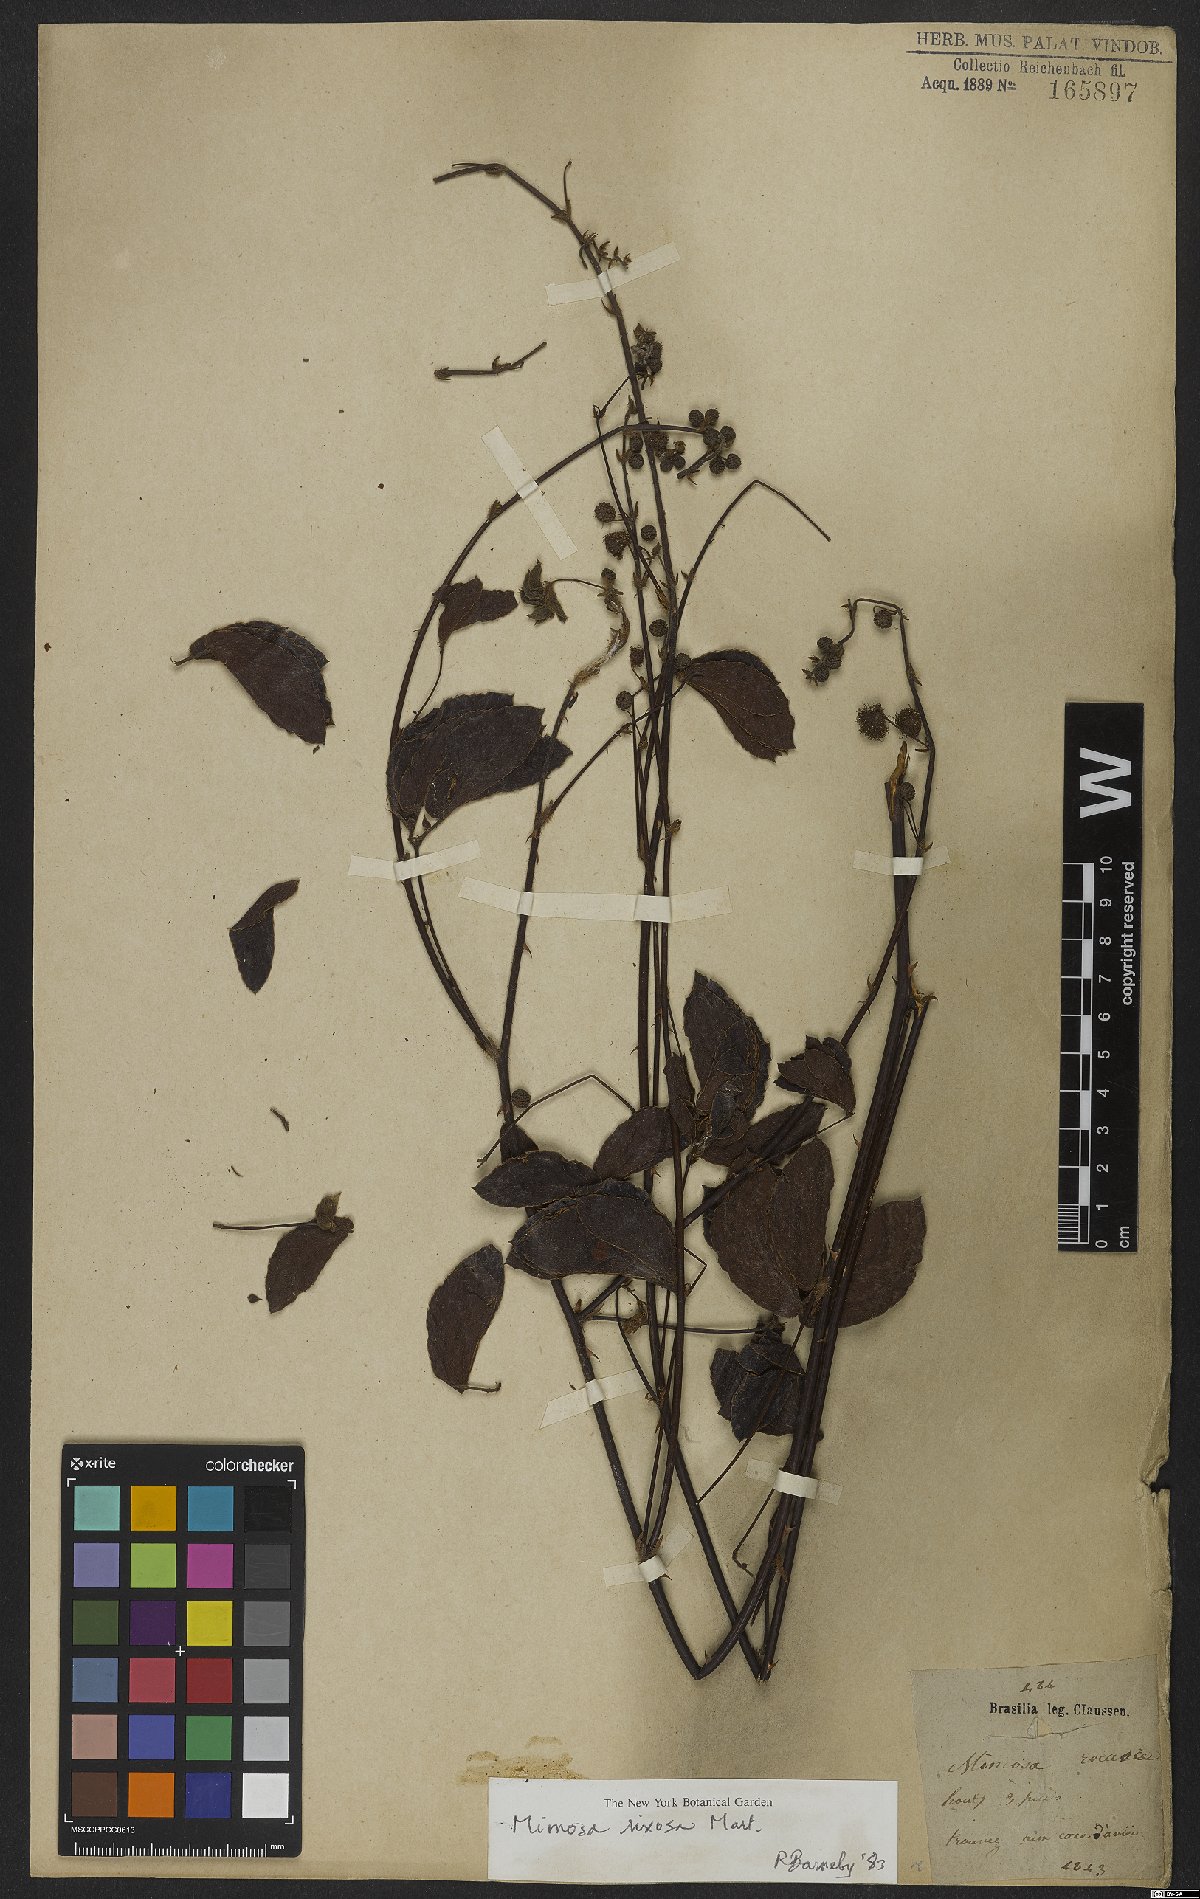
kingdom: Plantae
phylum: Tracheophyta
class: Magnoliopsida
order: Fabales
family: Fabaceae
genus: Mimosa
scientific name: Mimosa debilis
